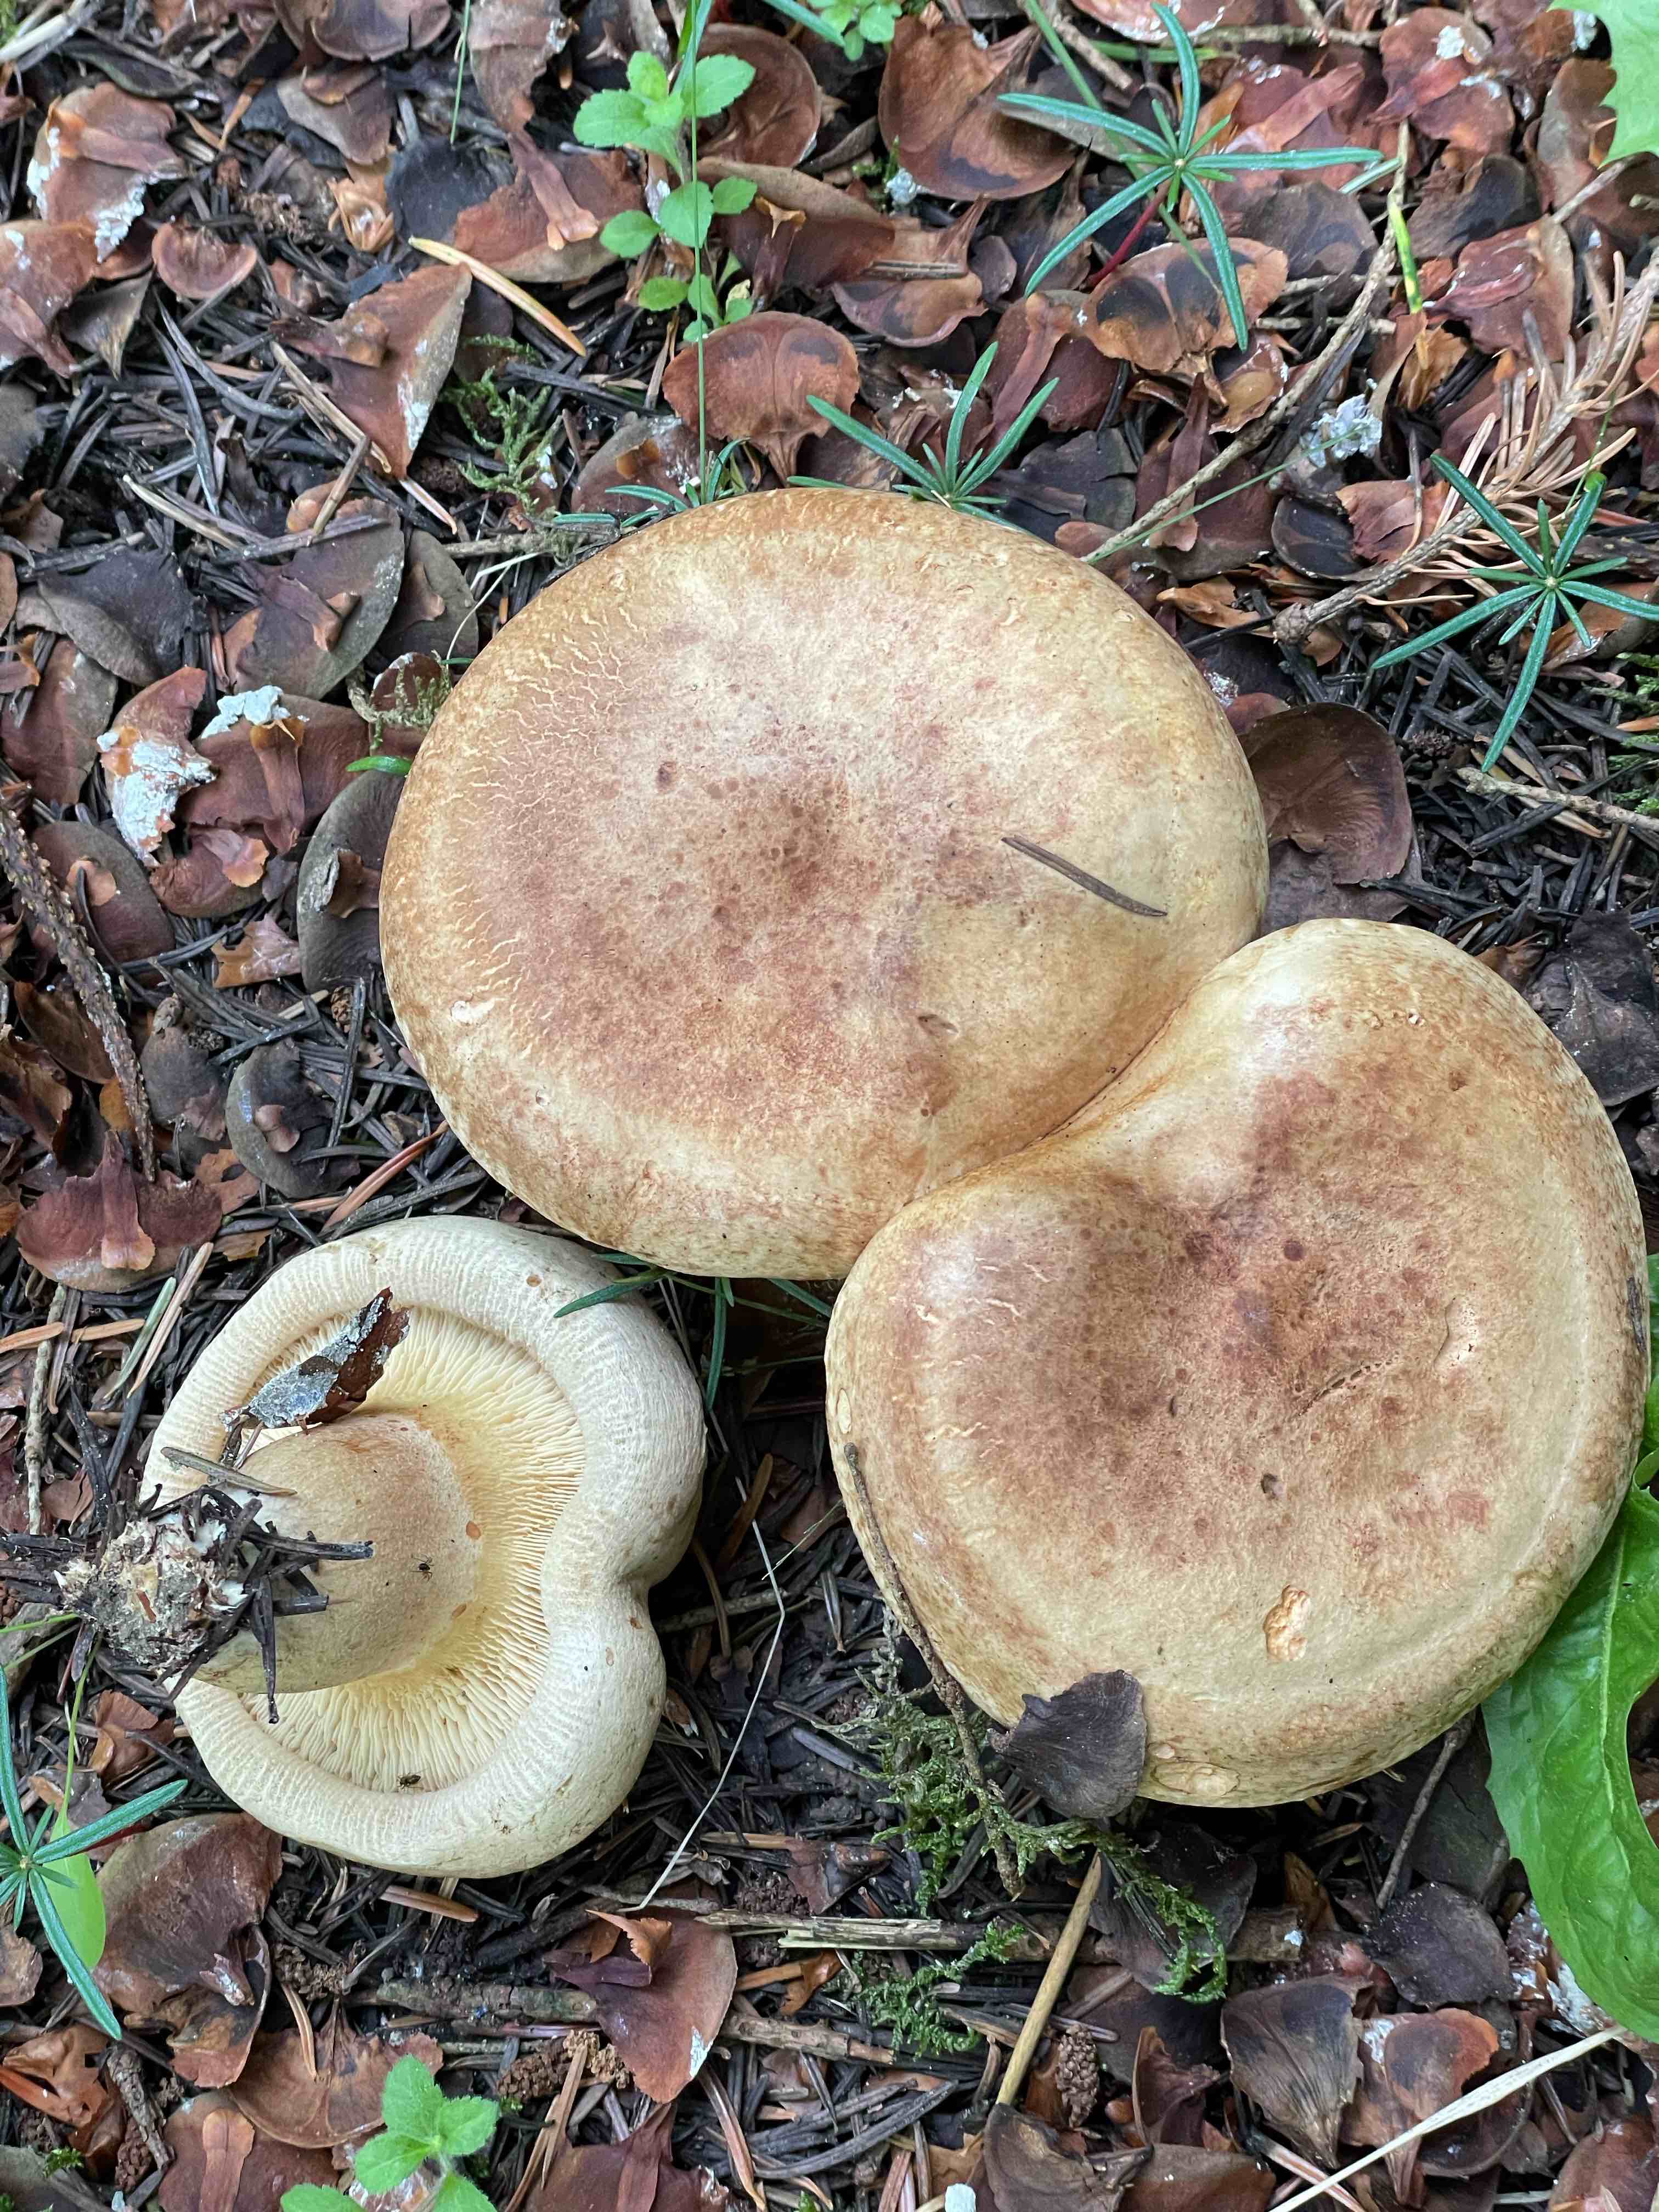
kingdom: Fungi
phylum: Basidiomycota
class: Agaricomycetes
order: Boletales
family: Paxillaceae
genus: Paxillus
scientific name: Paxillus involutus
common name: almindelig netbladhat
